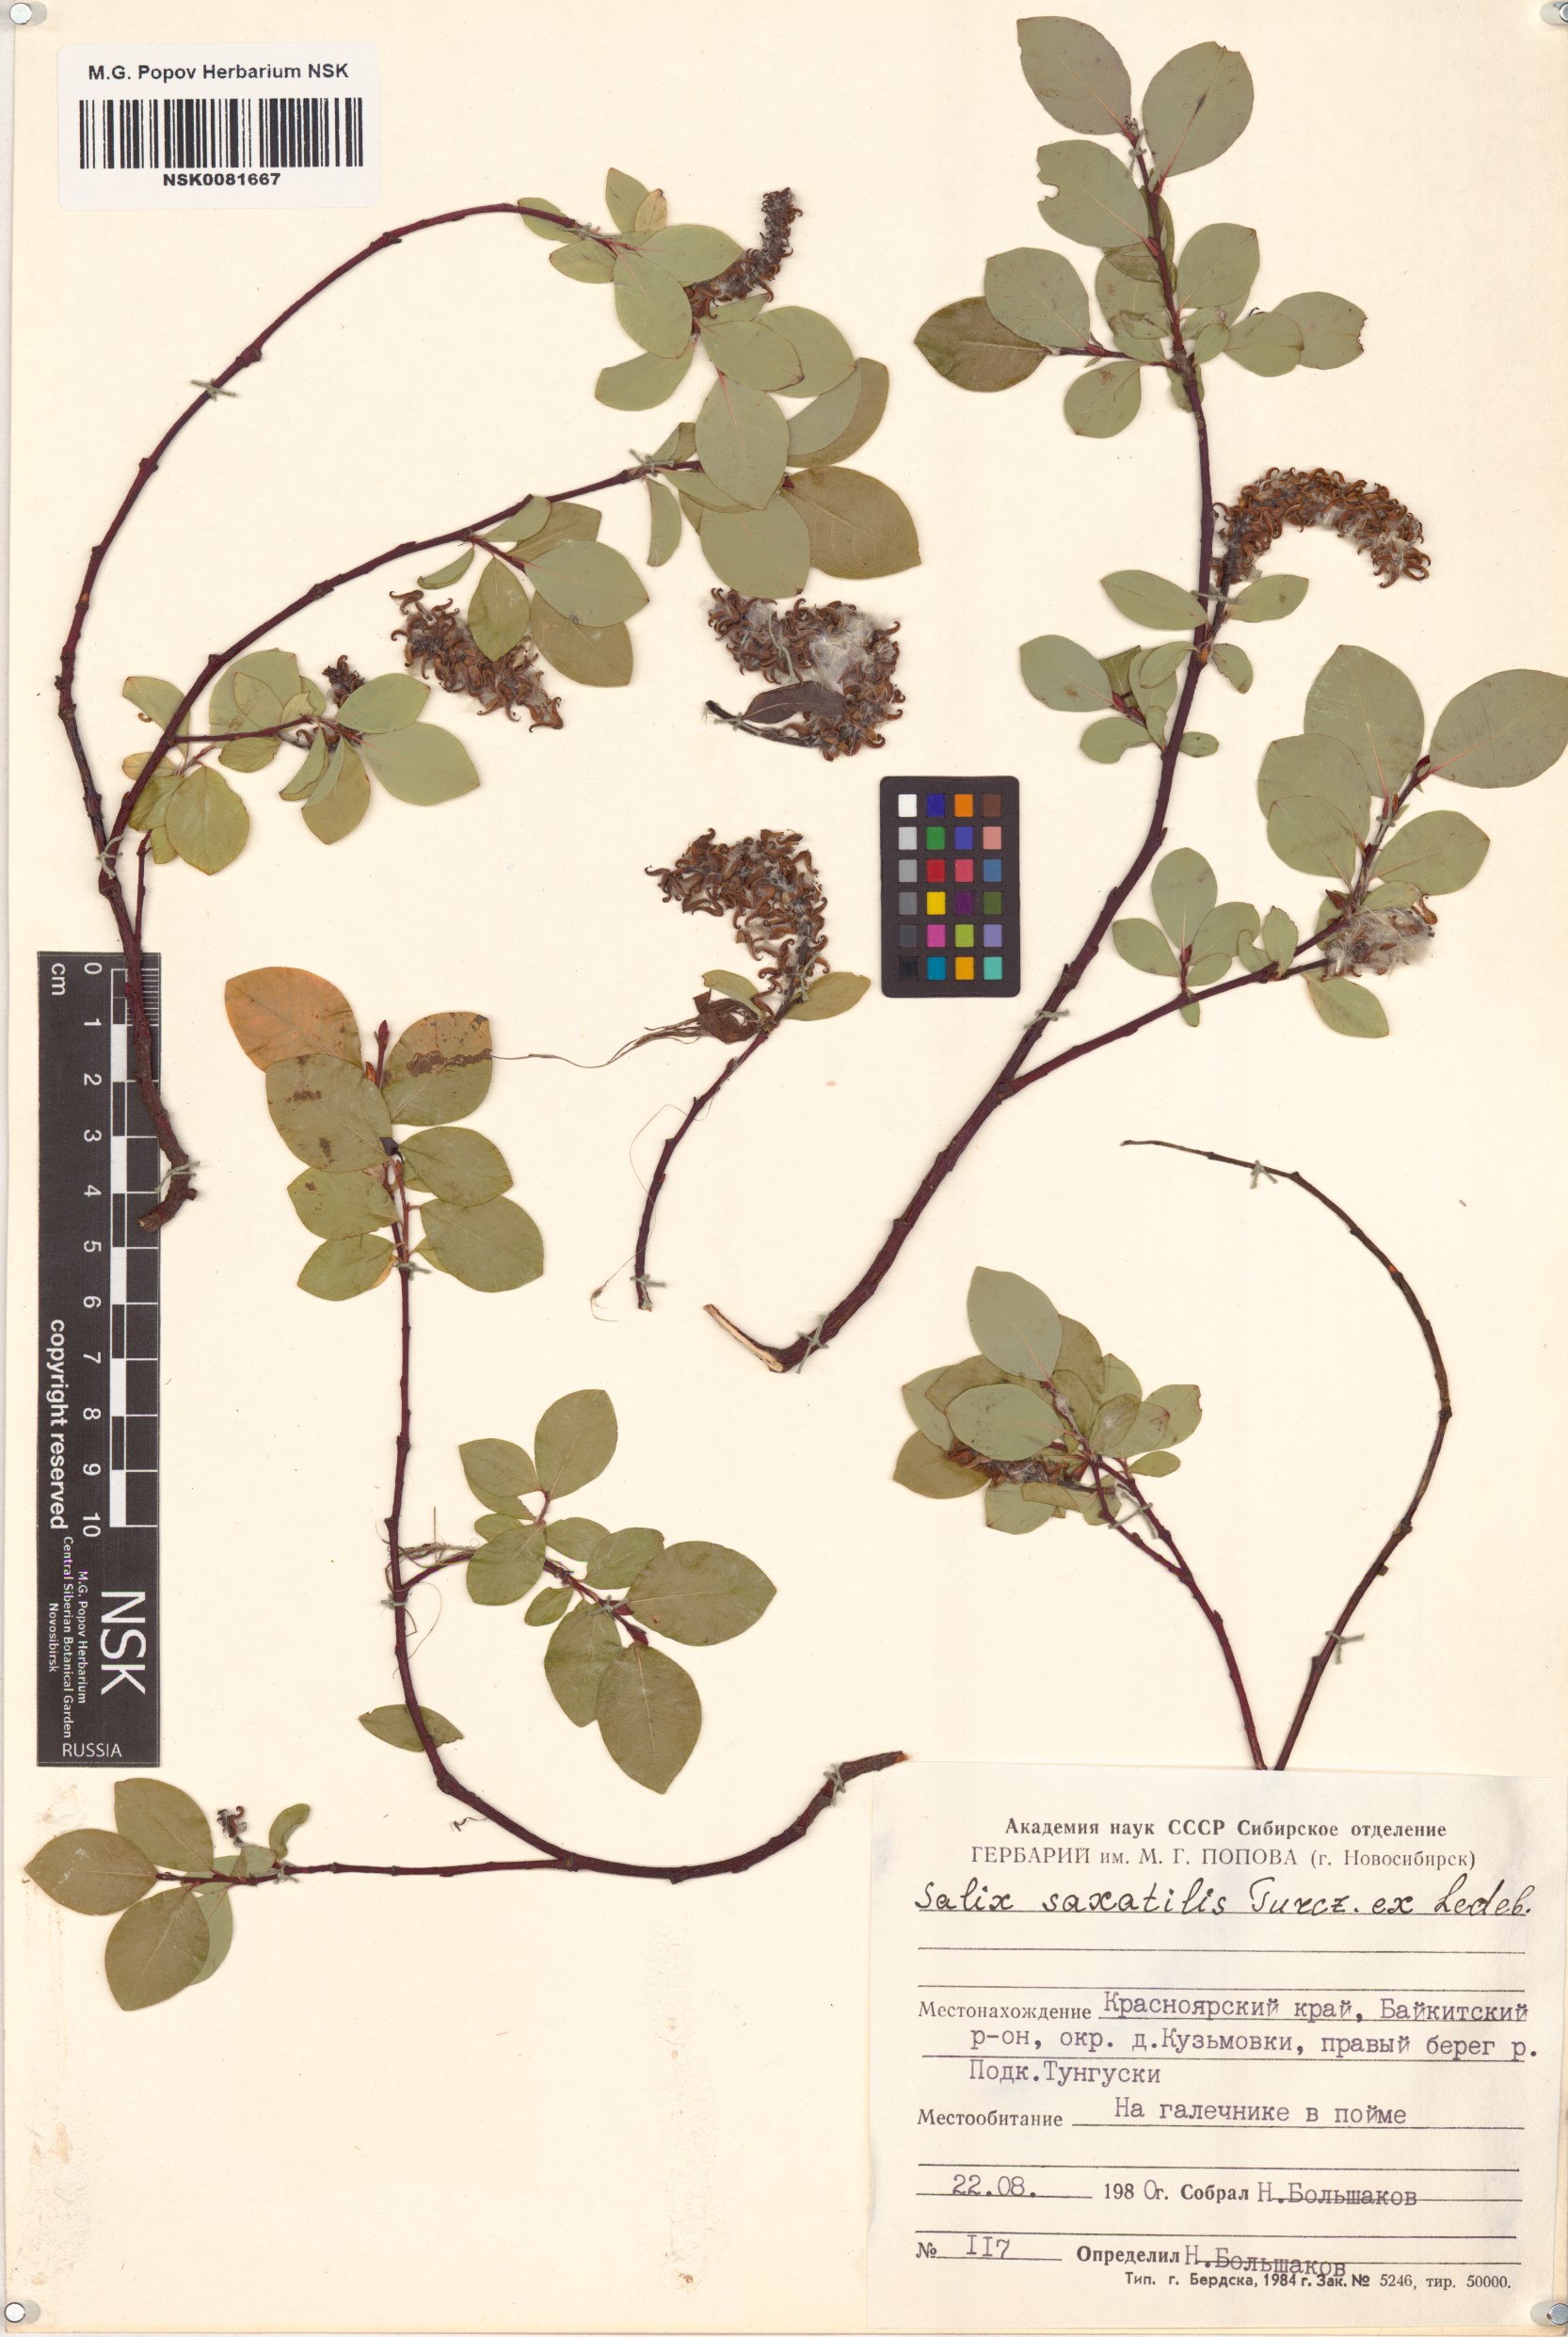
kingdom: Plantae
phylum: Tracheophyta
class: Magnoliopsida
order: Malpighiales
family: Salicaceae
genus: Salix
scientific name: Salix saxatilis
